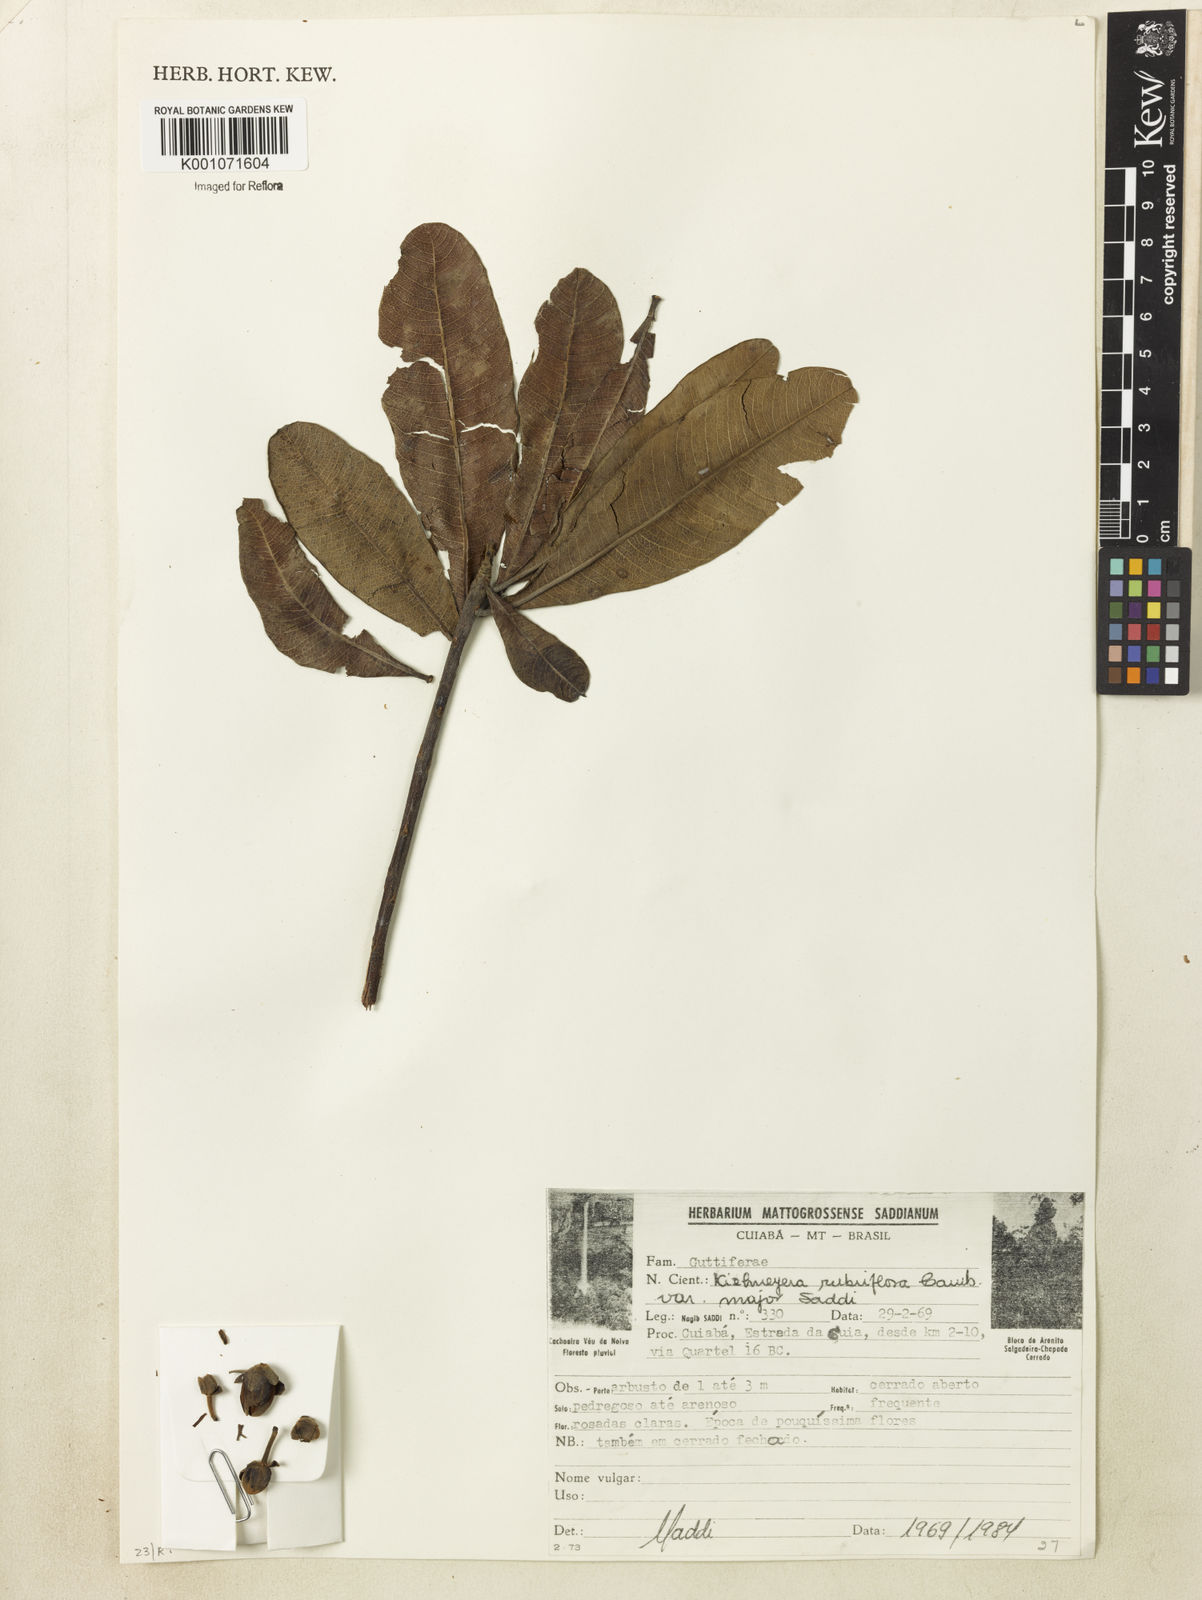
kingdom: Plantae
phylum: Tracheophyta
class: Magnoliopsida
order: Malpighiales
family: Calophyllaceae
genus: Kielmeyera
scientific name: Kielmeyera rubriflora
